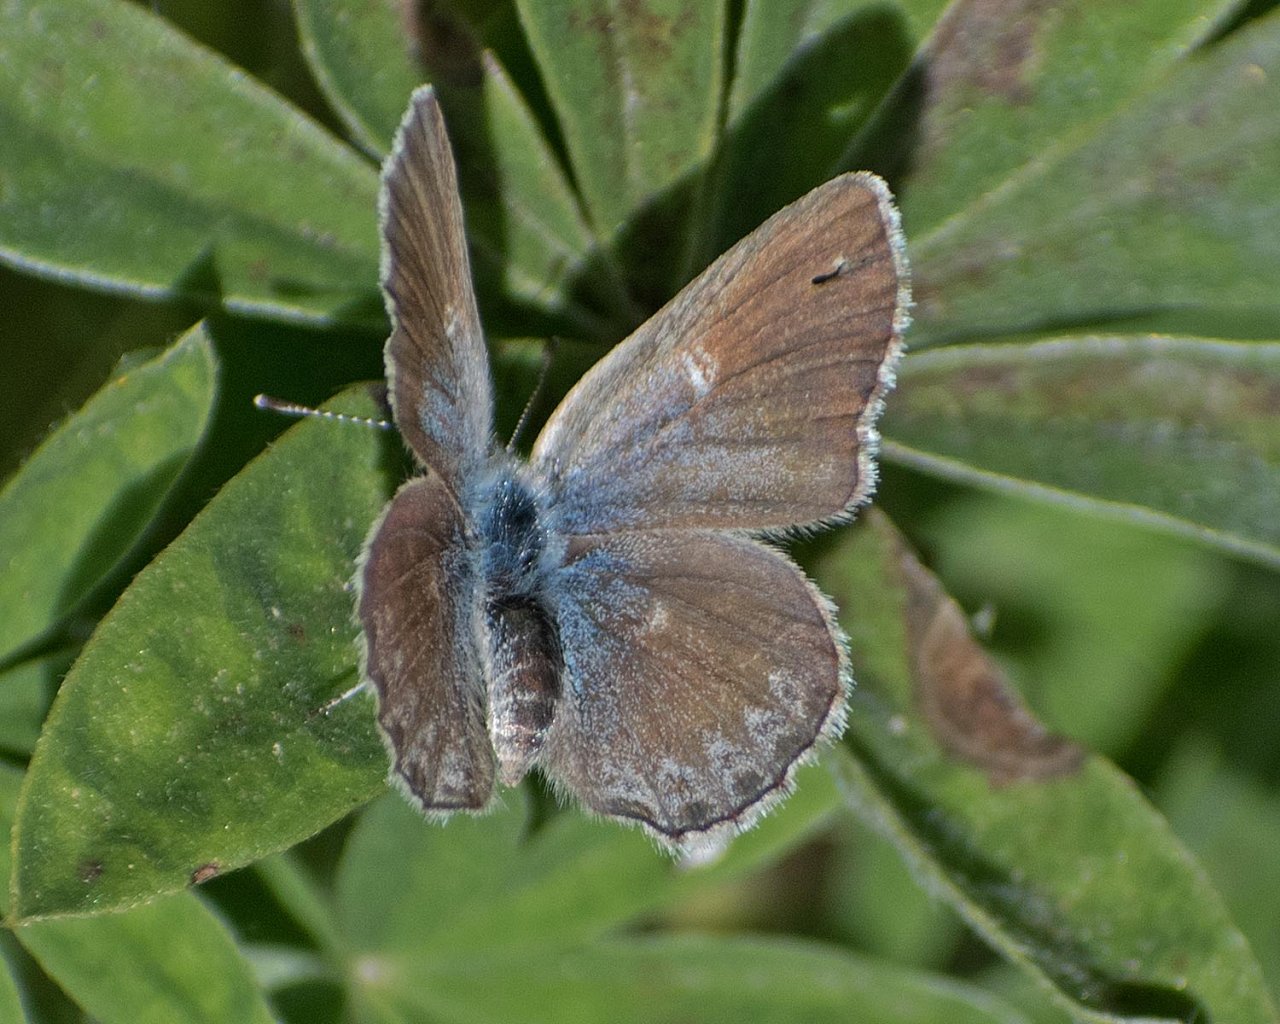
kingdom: Animalia
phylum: Arthropoda
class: Insecta
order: Lepidoptera
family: Lycaenidae
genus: Icaricia
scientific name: Icaricia icarioides
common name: Boisduval's Blue
